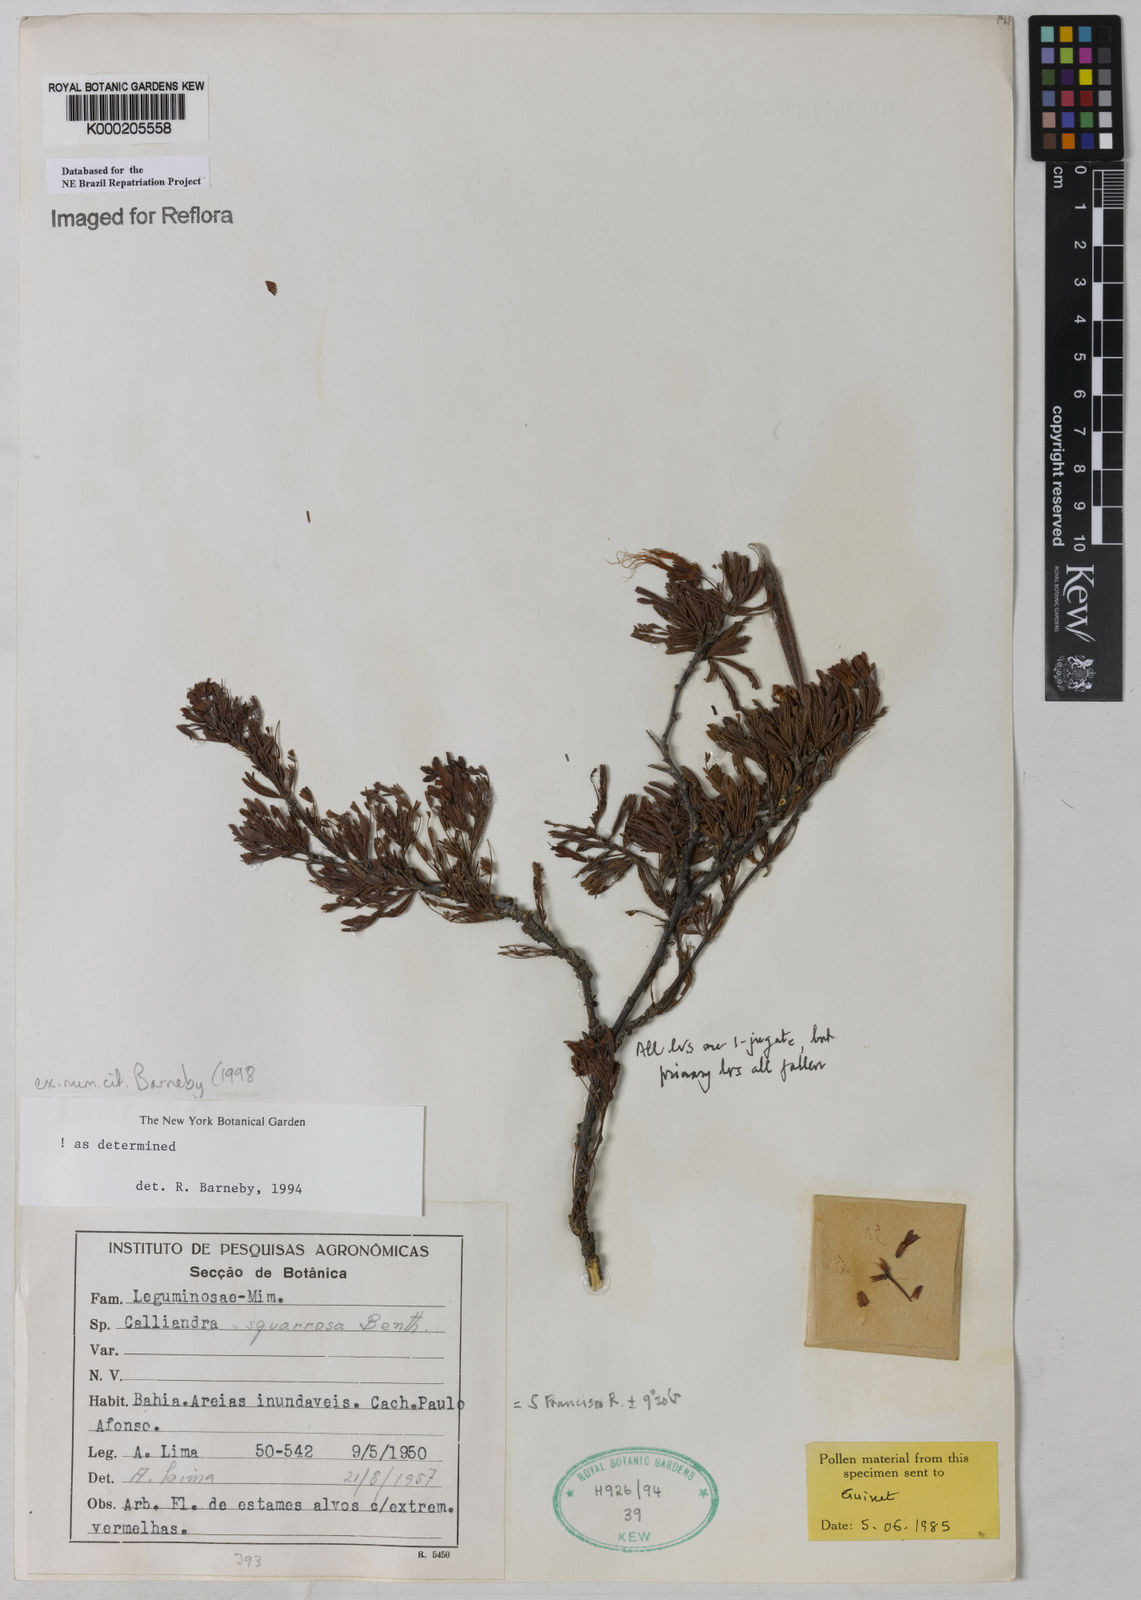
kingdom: Plantae
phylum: Tracheophyta
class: Magnoliopsida
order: Fabales
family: Fabaceae
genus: Calliandra
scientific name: Calliandra squarrosa
